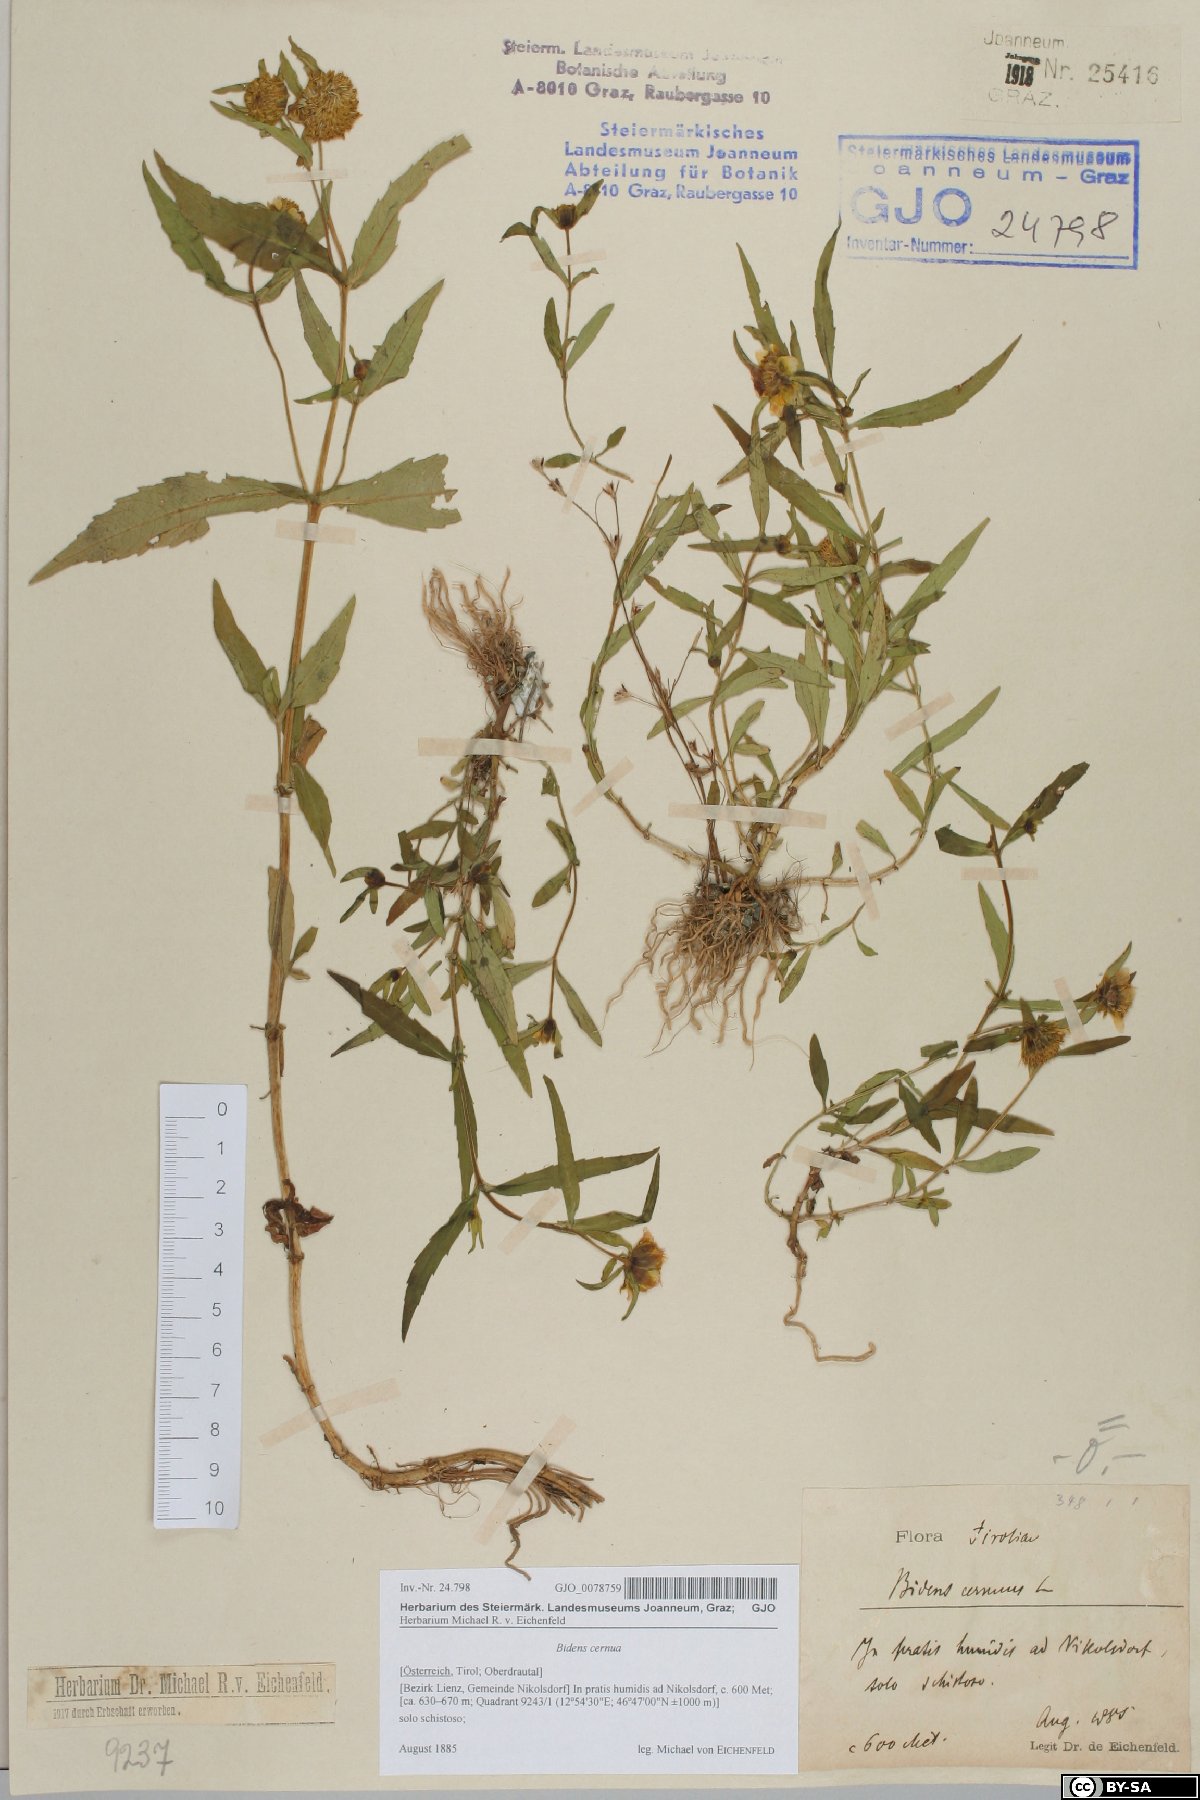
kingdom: Plantae
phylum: Tracheophyta
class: Magnoliopsida
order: Asterales
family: Asteraceae
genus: Bidens
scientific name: Bidens cernua
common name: Nodding bur-marigold
